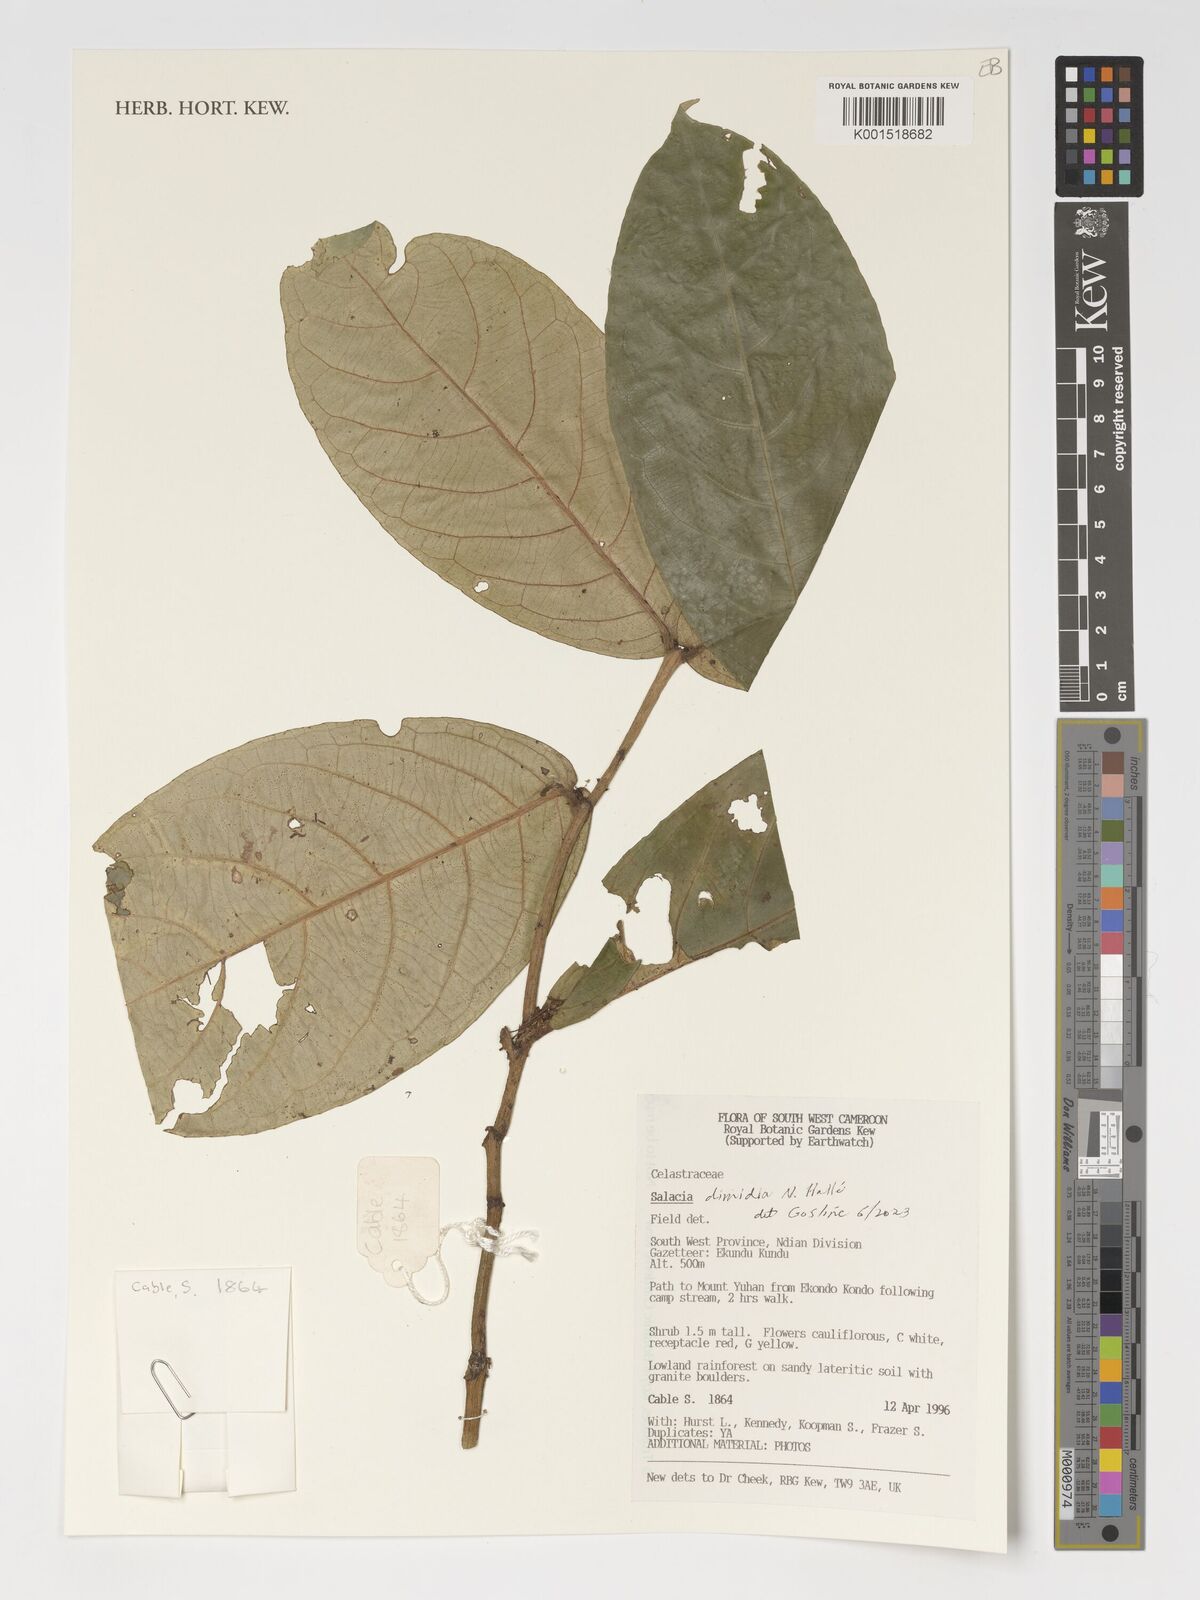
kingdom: Plantae
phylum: Tracheophyta
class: Magnoliopsida
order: Celastrales
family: Celastraceae
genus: Salacia
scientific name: Salacia dimidia
